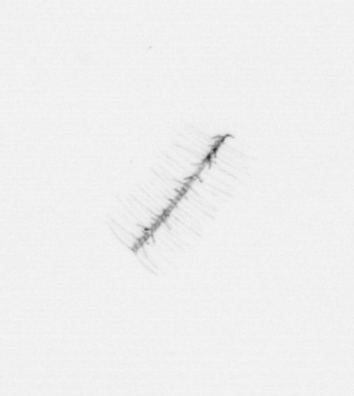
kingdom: Chromista
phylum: Ochrophyta
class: Bacillariophyceae
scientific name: Bacillariophyceae
